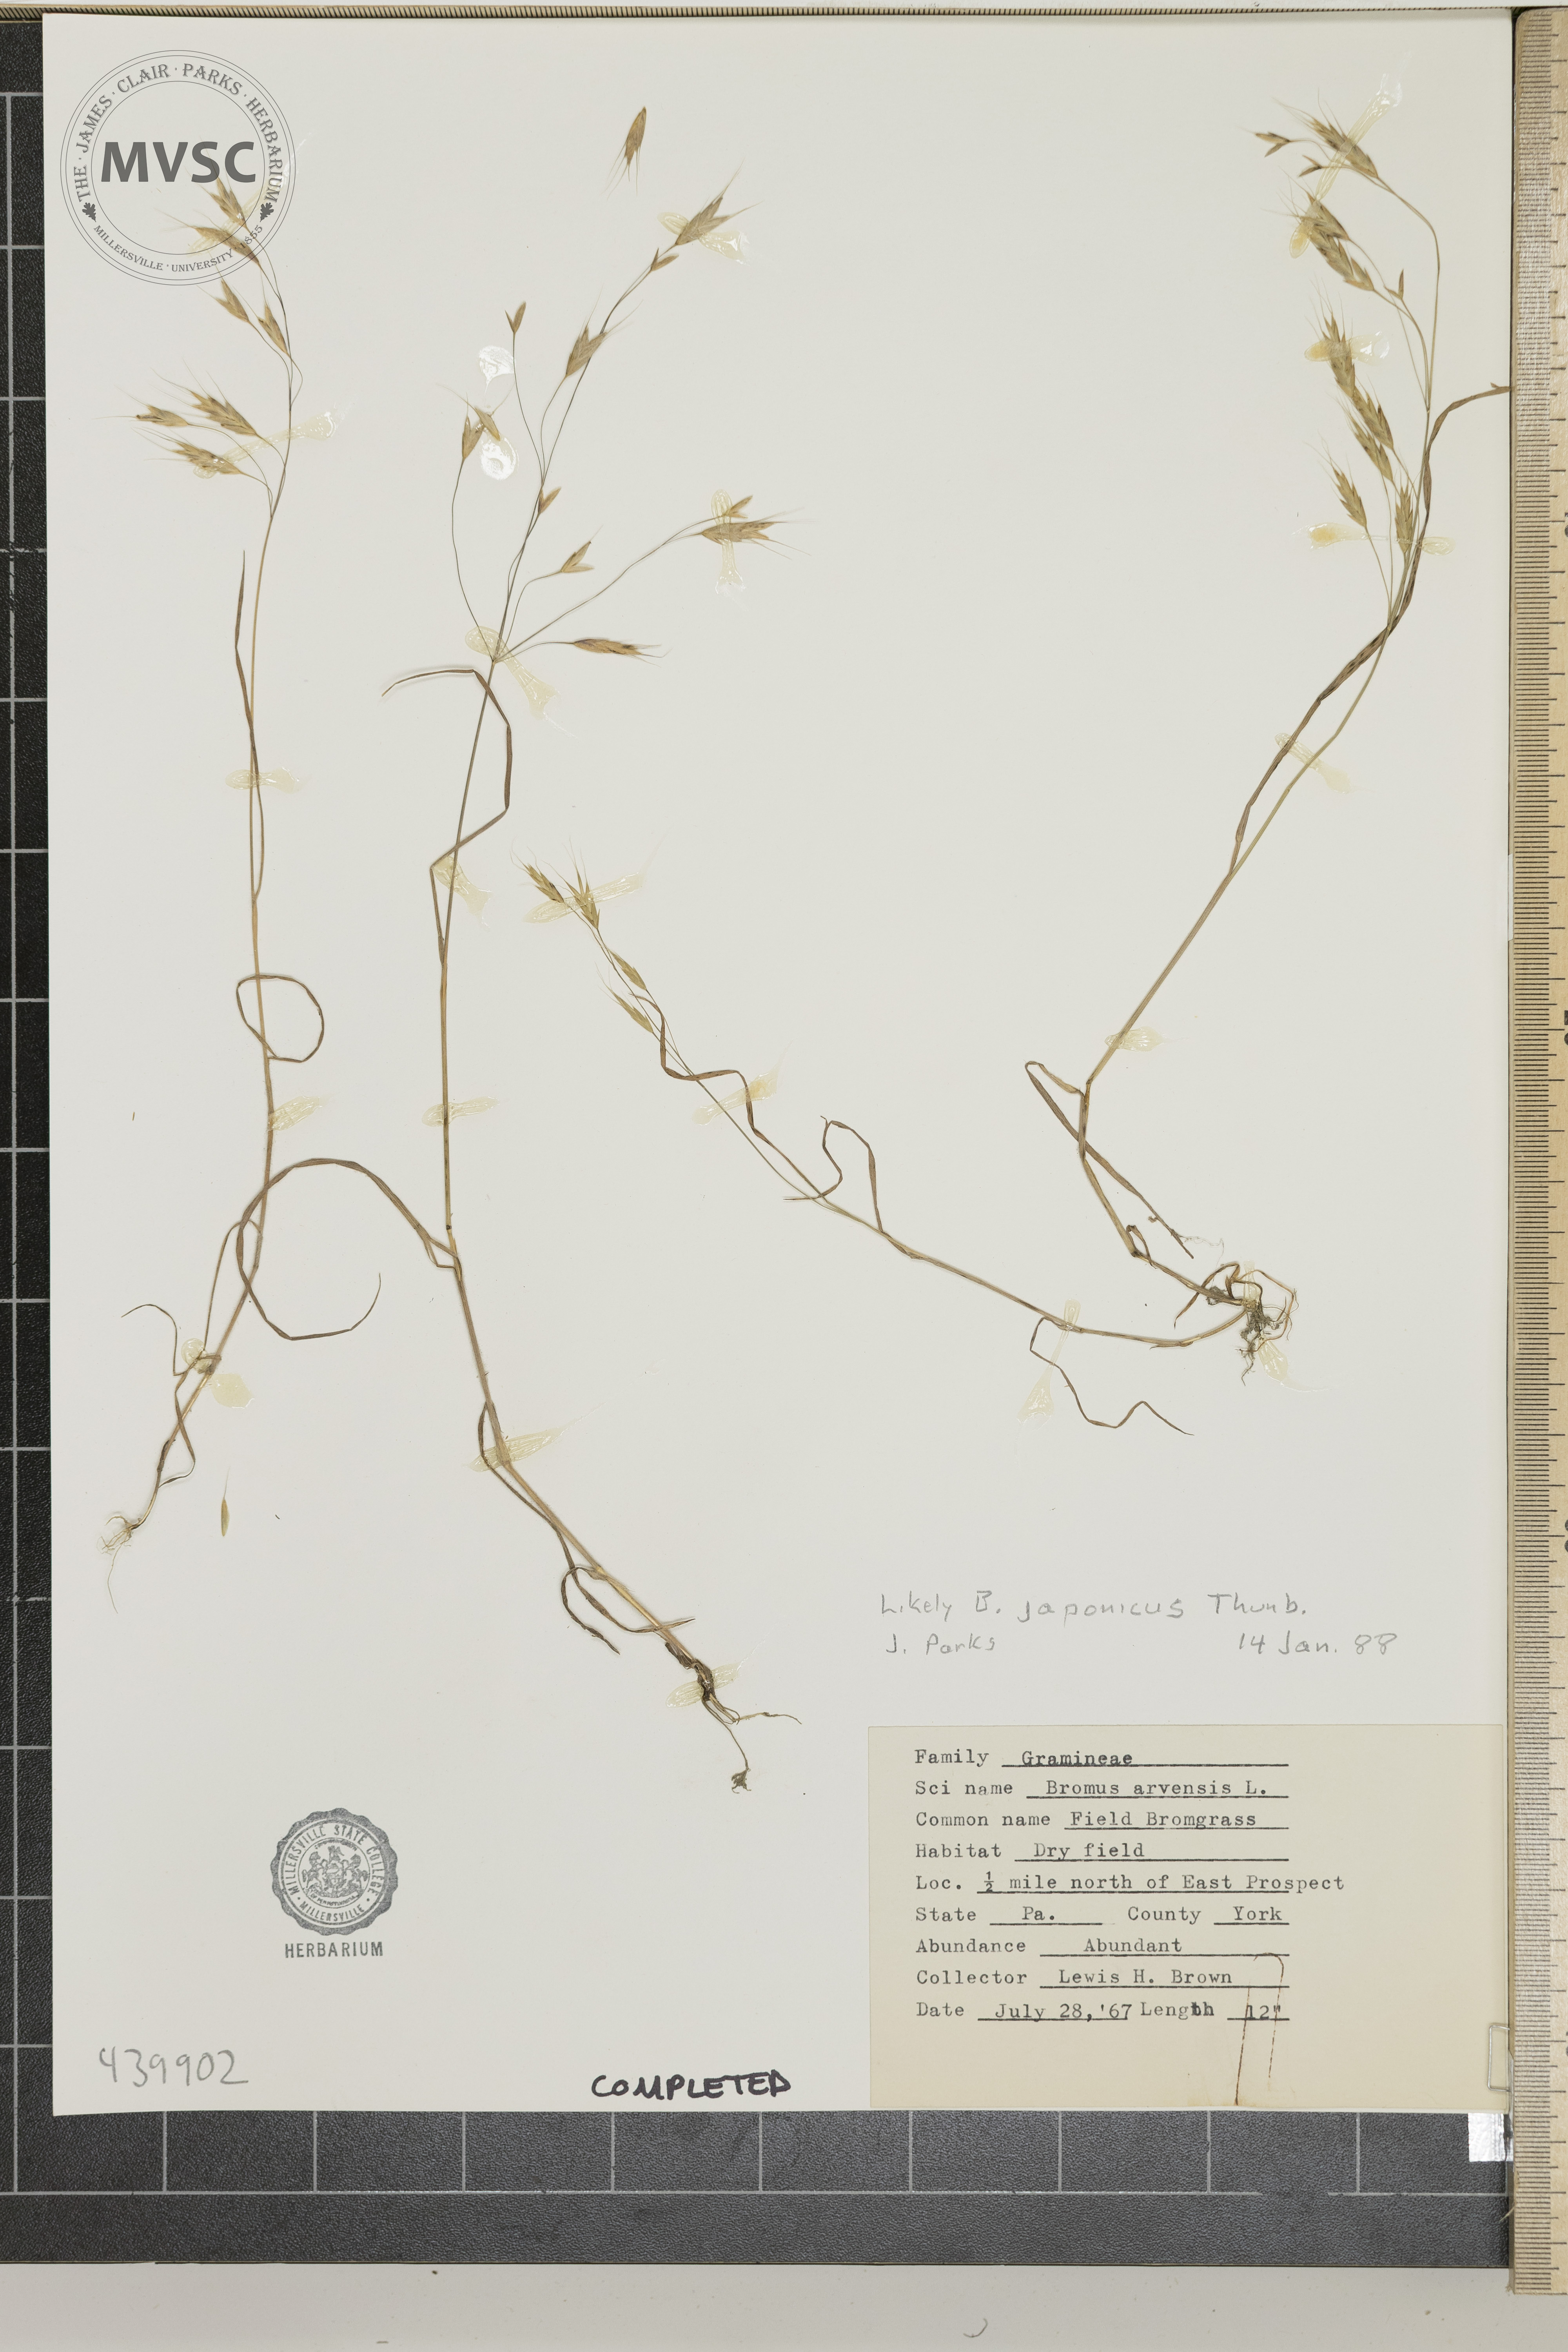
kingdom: Plantae
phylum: Tracheophyta
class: Liliopsida
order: Poales
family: Poaceae
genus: Bromus
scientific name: Bromus japonicus
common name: Japanese brome
